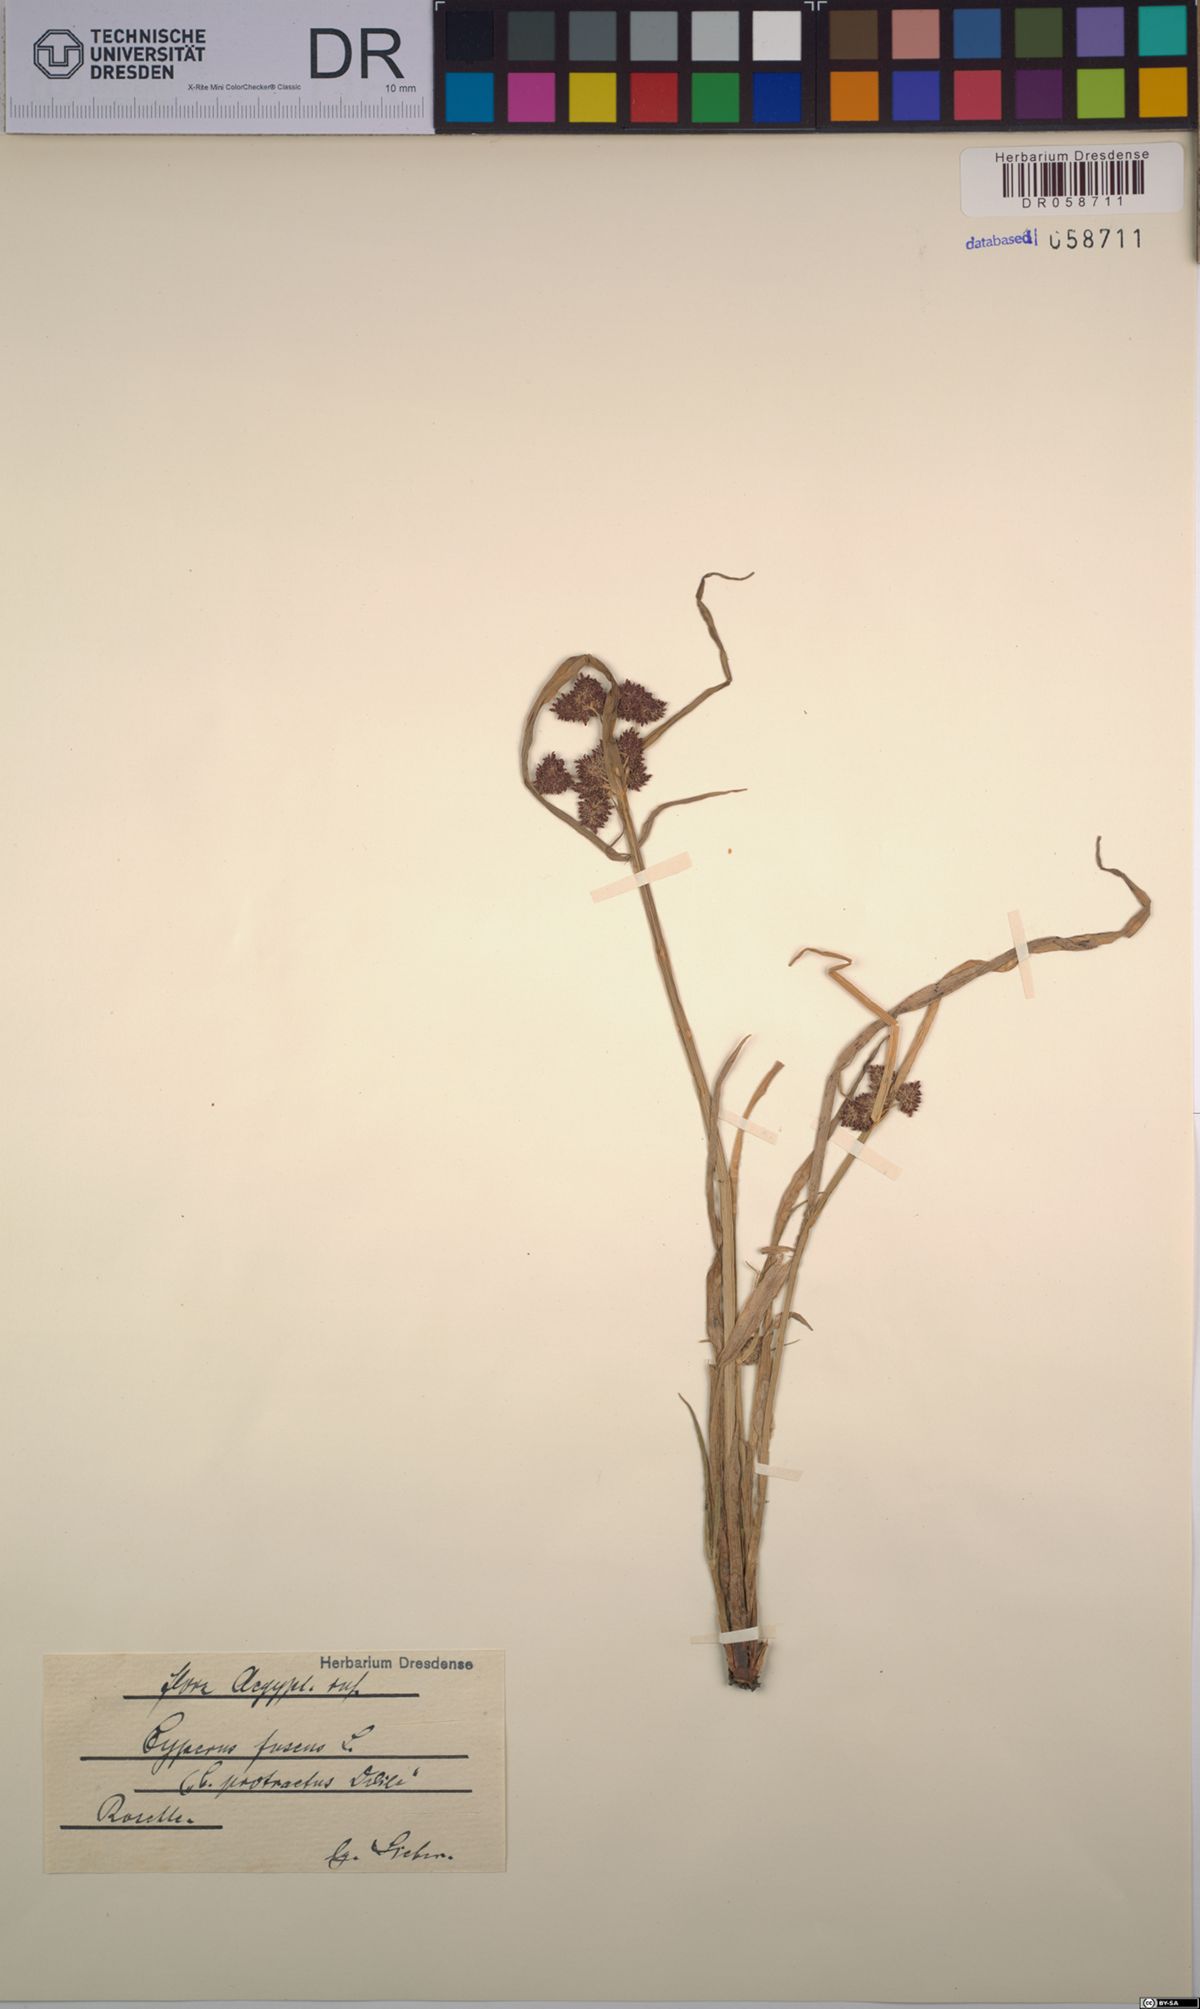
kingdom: Plantae
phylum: Tracheophyta
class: Liliopsida
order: Poales
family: Cyperaceae
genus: Cyperus
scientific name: Cyperus fuscus
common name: Brown galingale
